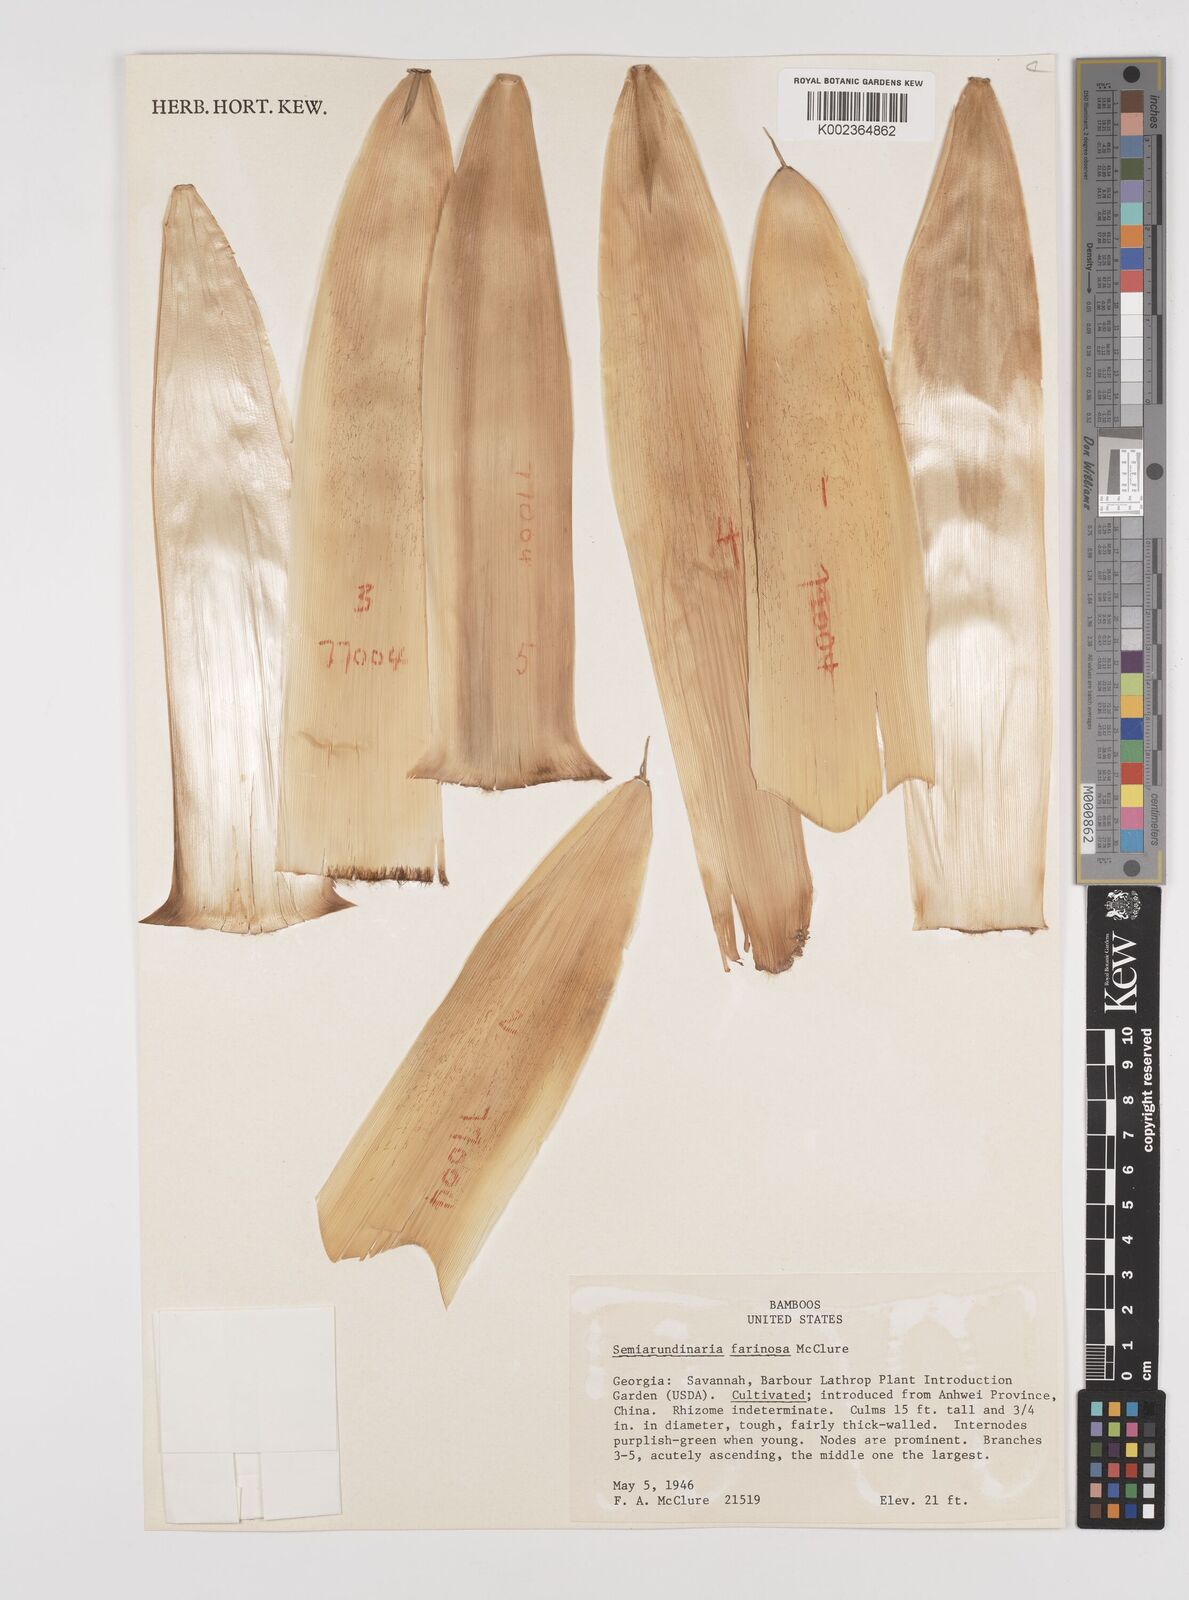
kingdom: Plantae
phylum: Tracheophyta
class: Liliopsida
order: Poales
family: Poaceae
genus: Sinobambusa
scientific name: Sinobambusa farinosa
